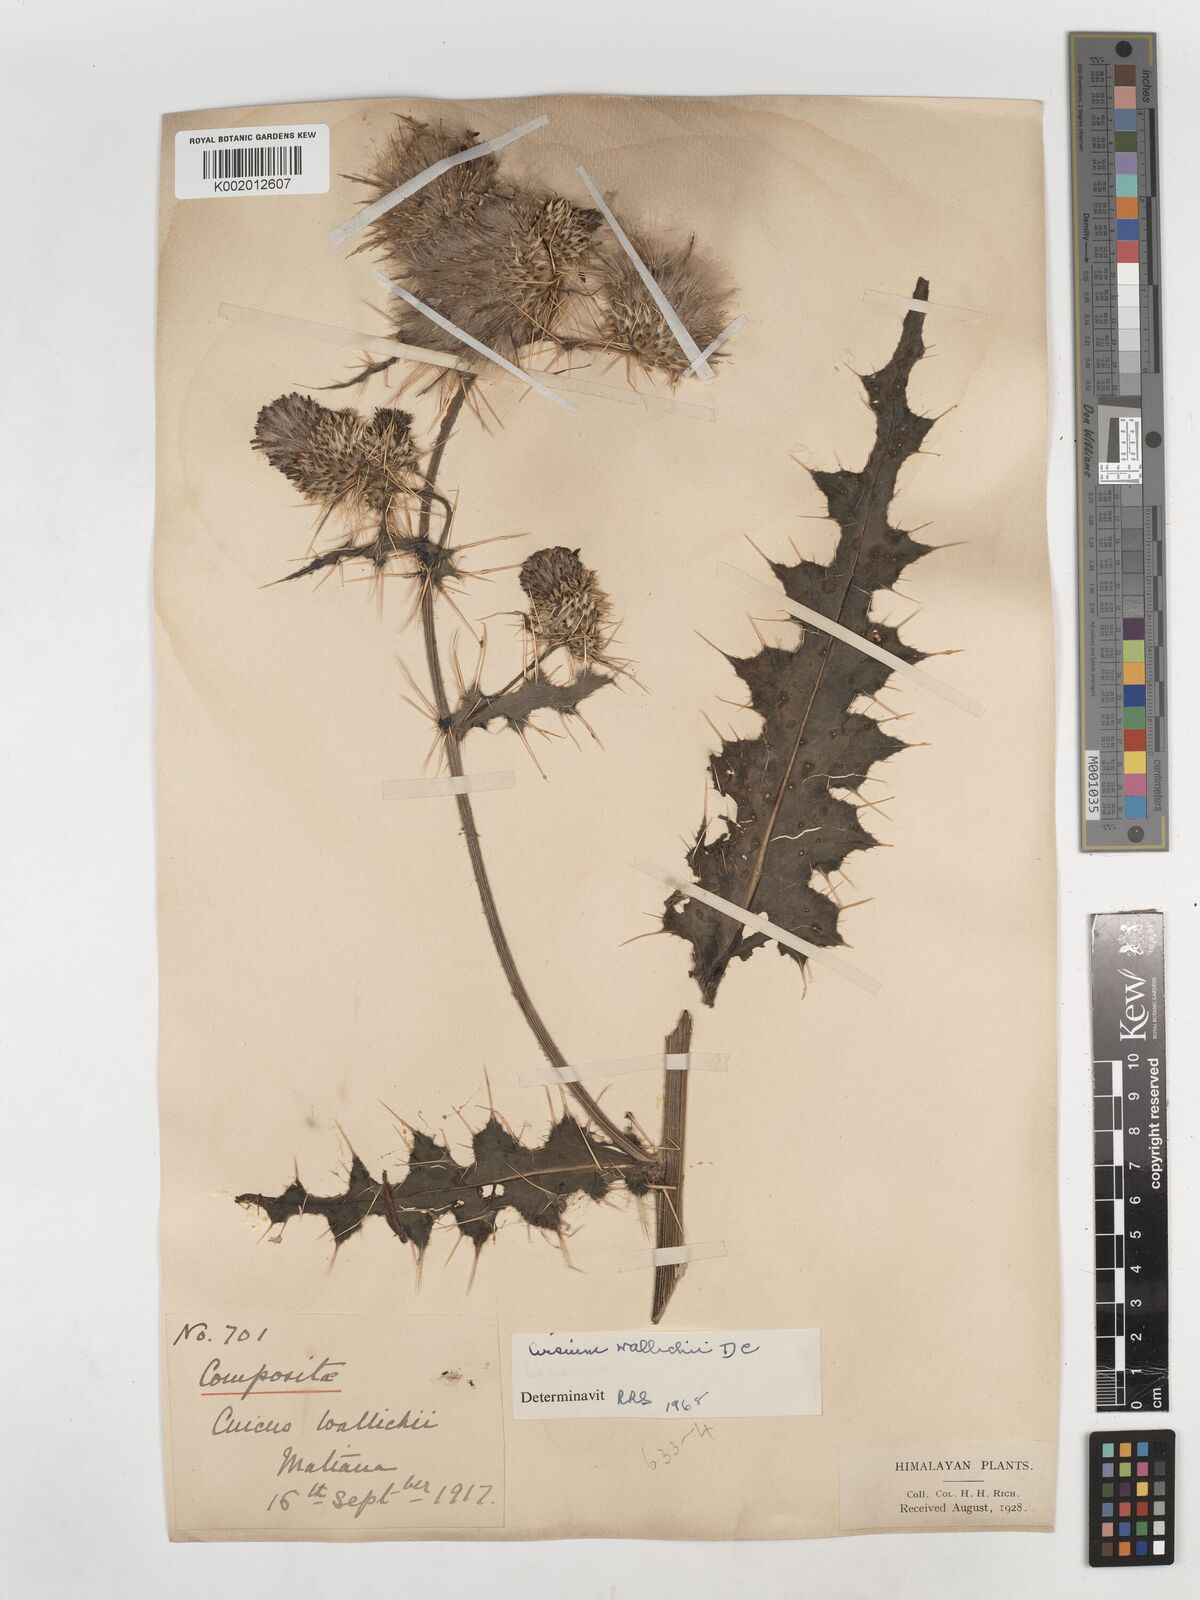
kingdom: Plantae
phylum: Tracheophyta
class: Magnoliopsida
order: Asterales
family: Asteraceae
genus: Cirsium
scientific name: Cirsium wallichii
